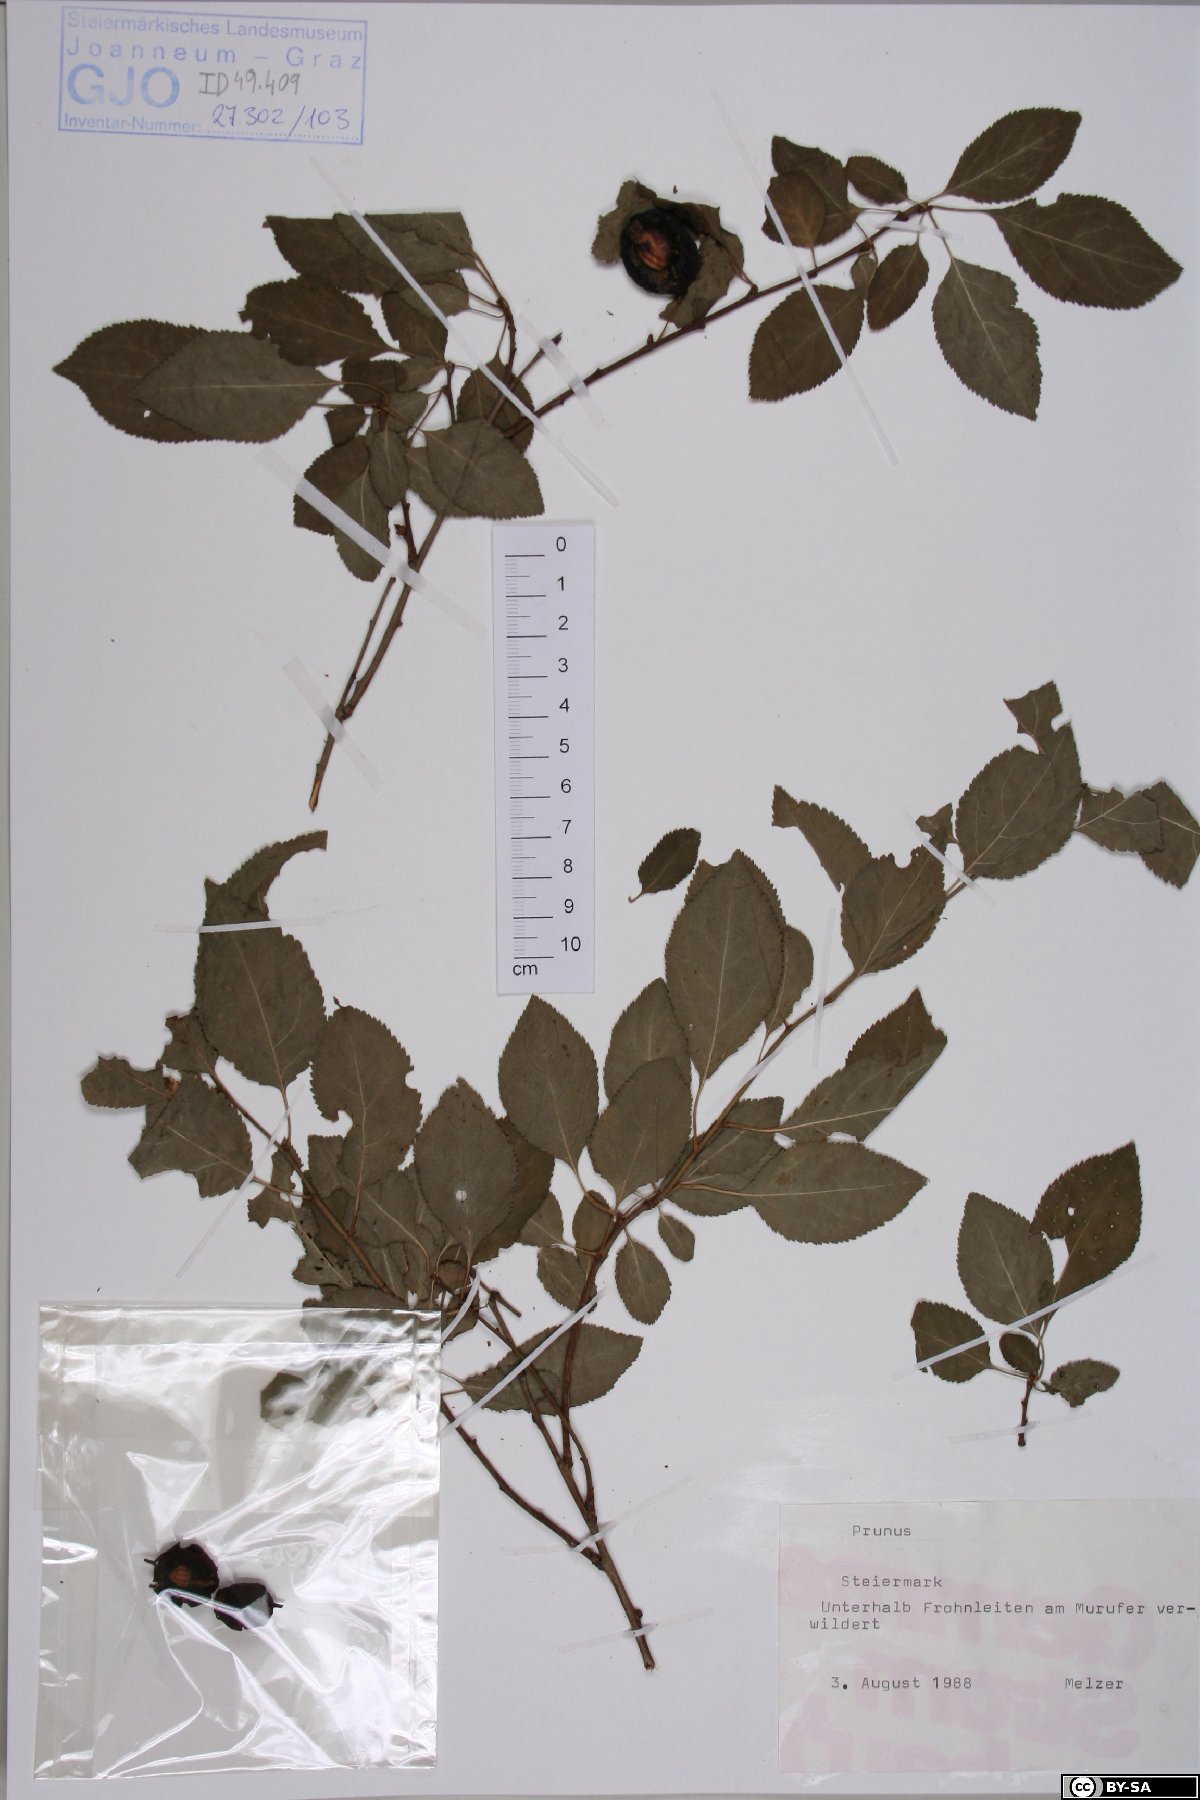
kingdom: Plantae
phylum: Tracheophyta
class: Magnoliopsida
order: Rosales
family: Rosaceae
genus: Prunus
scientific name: Prunus
